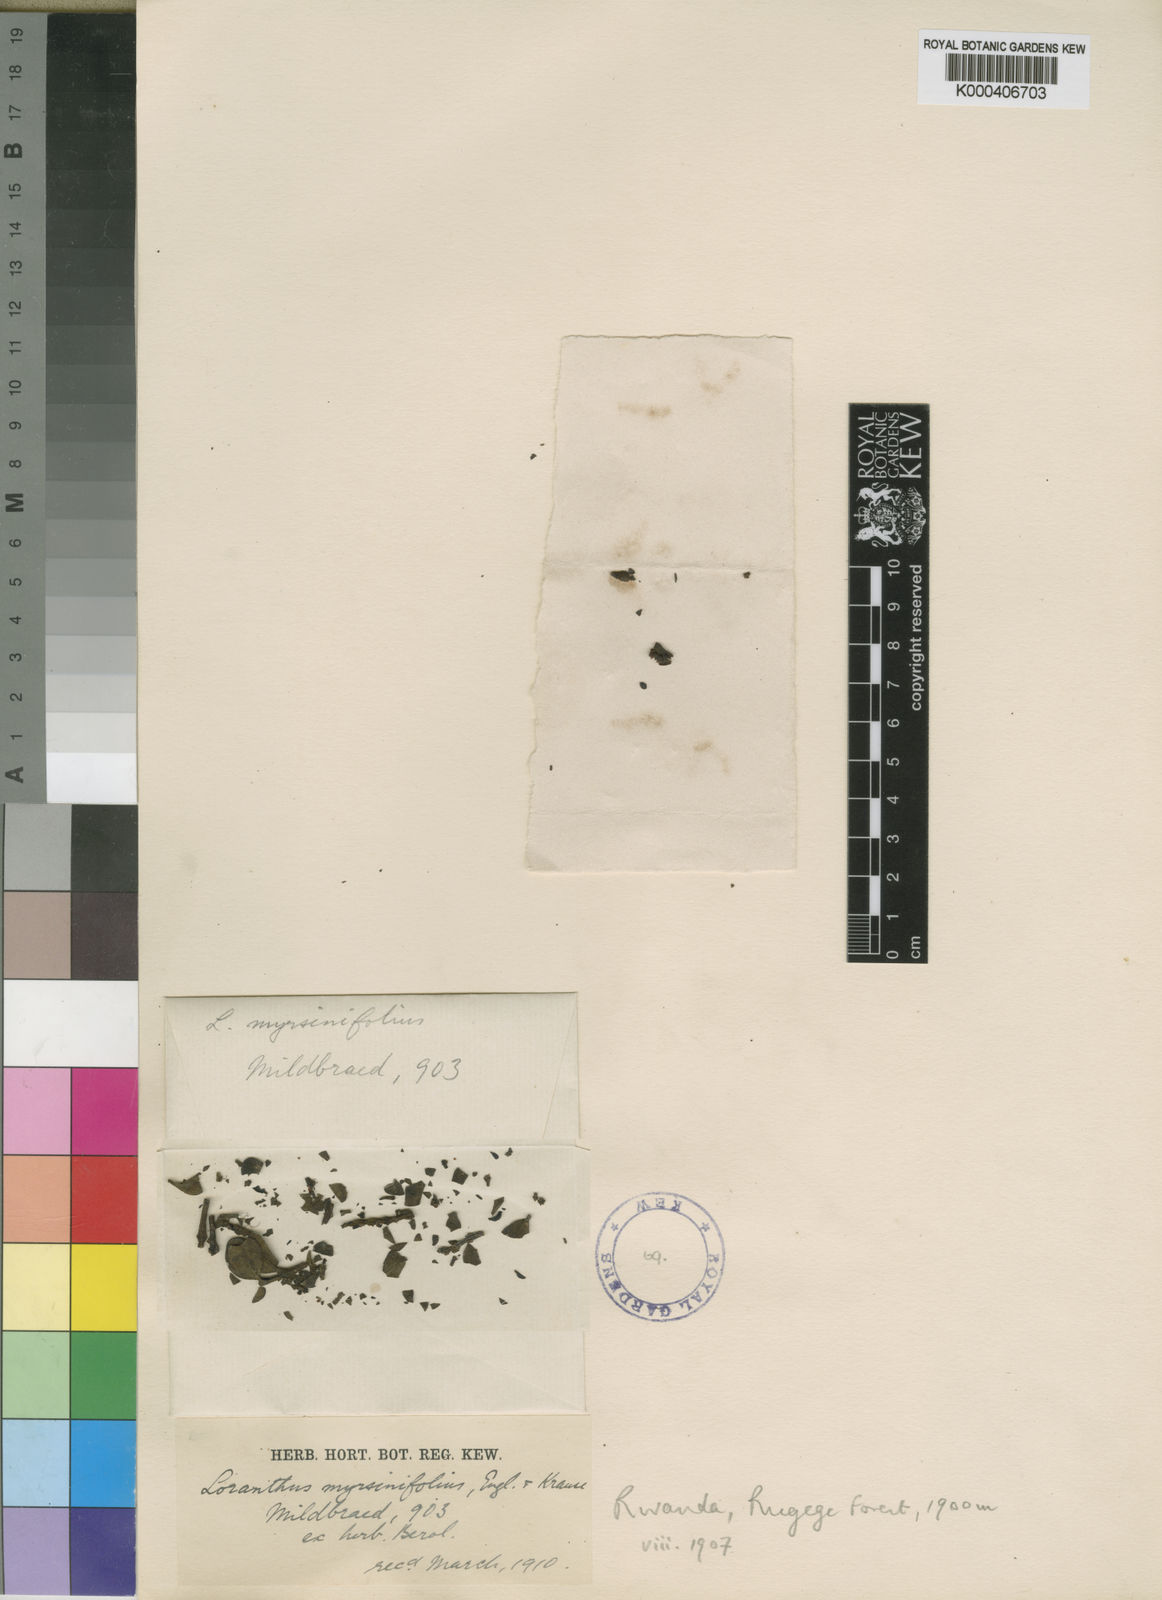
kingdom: Plantae
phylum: Tracheophyta
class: Magnoliopsida
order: Santalales
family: Loranthaceae
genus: Agelanthus
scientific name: Agelanthus myrsinifolius
